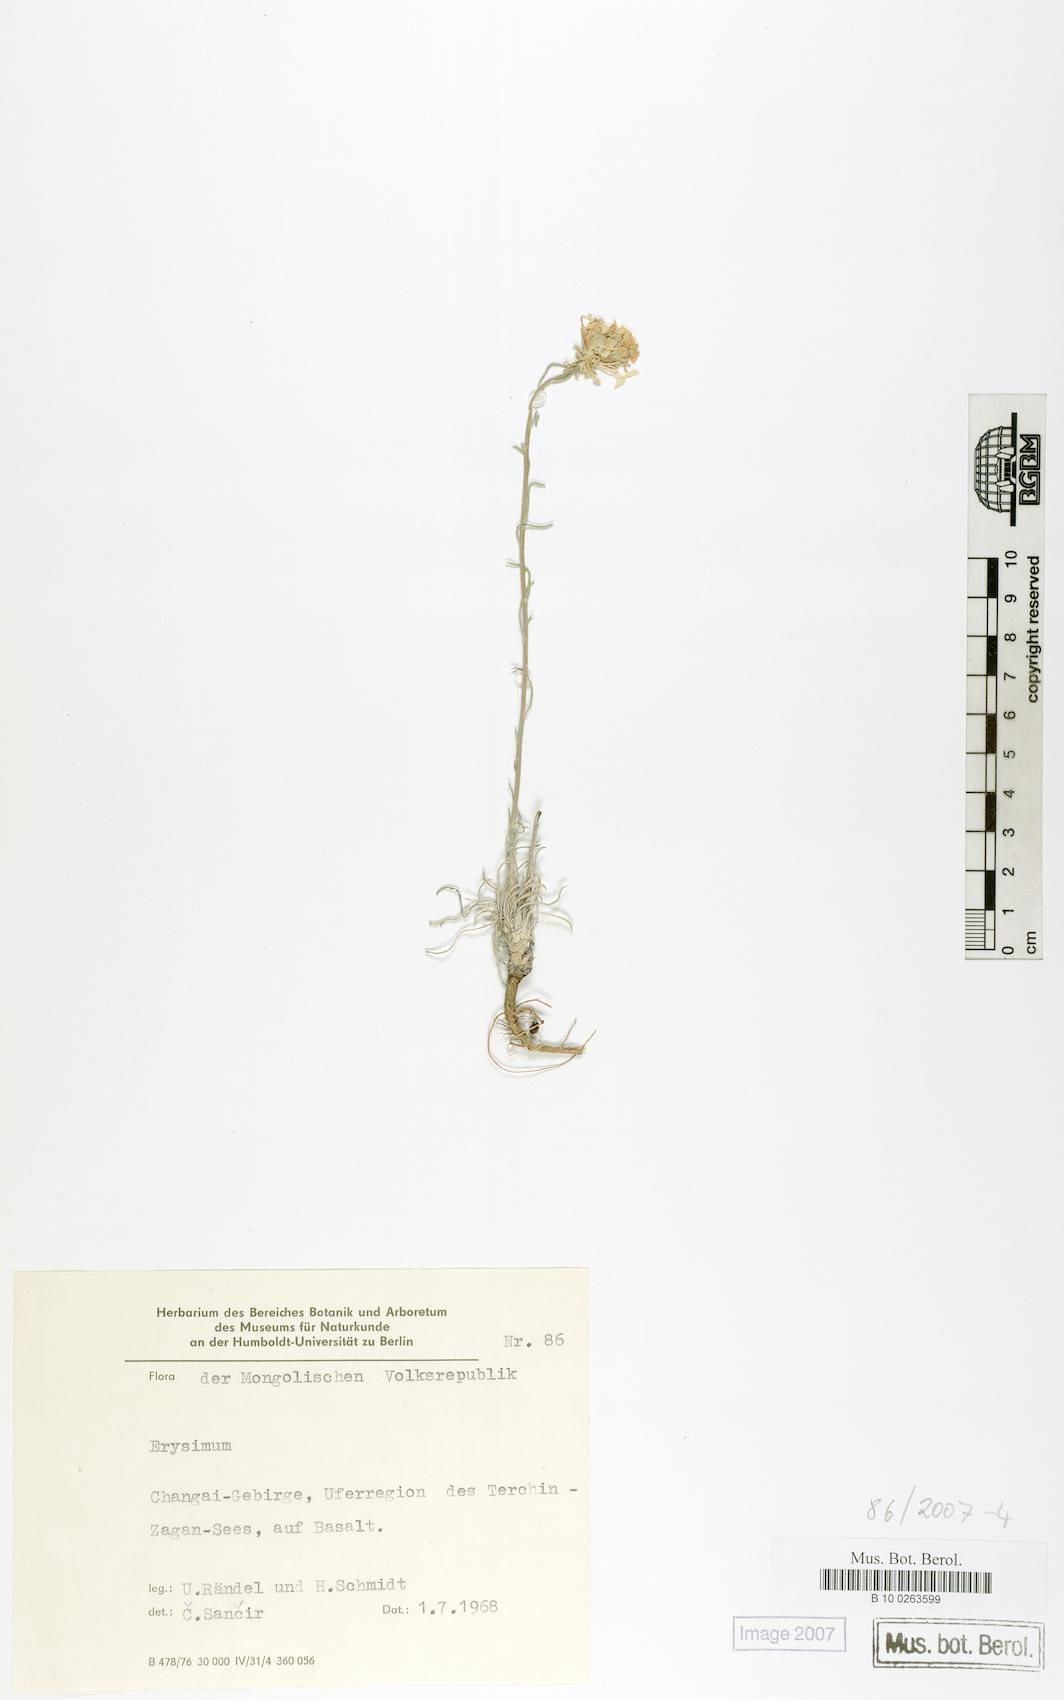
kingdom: Plantae
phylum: Tracheophyta
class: Magnoliopsida
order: Brassicales
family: Brassicaceae
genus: Erysimum
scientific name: Erysimum
